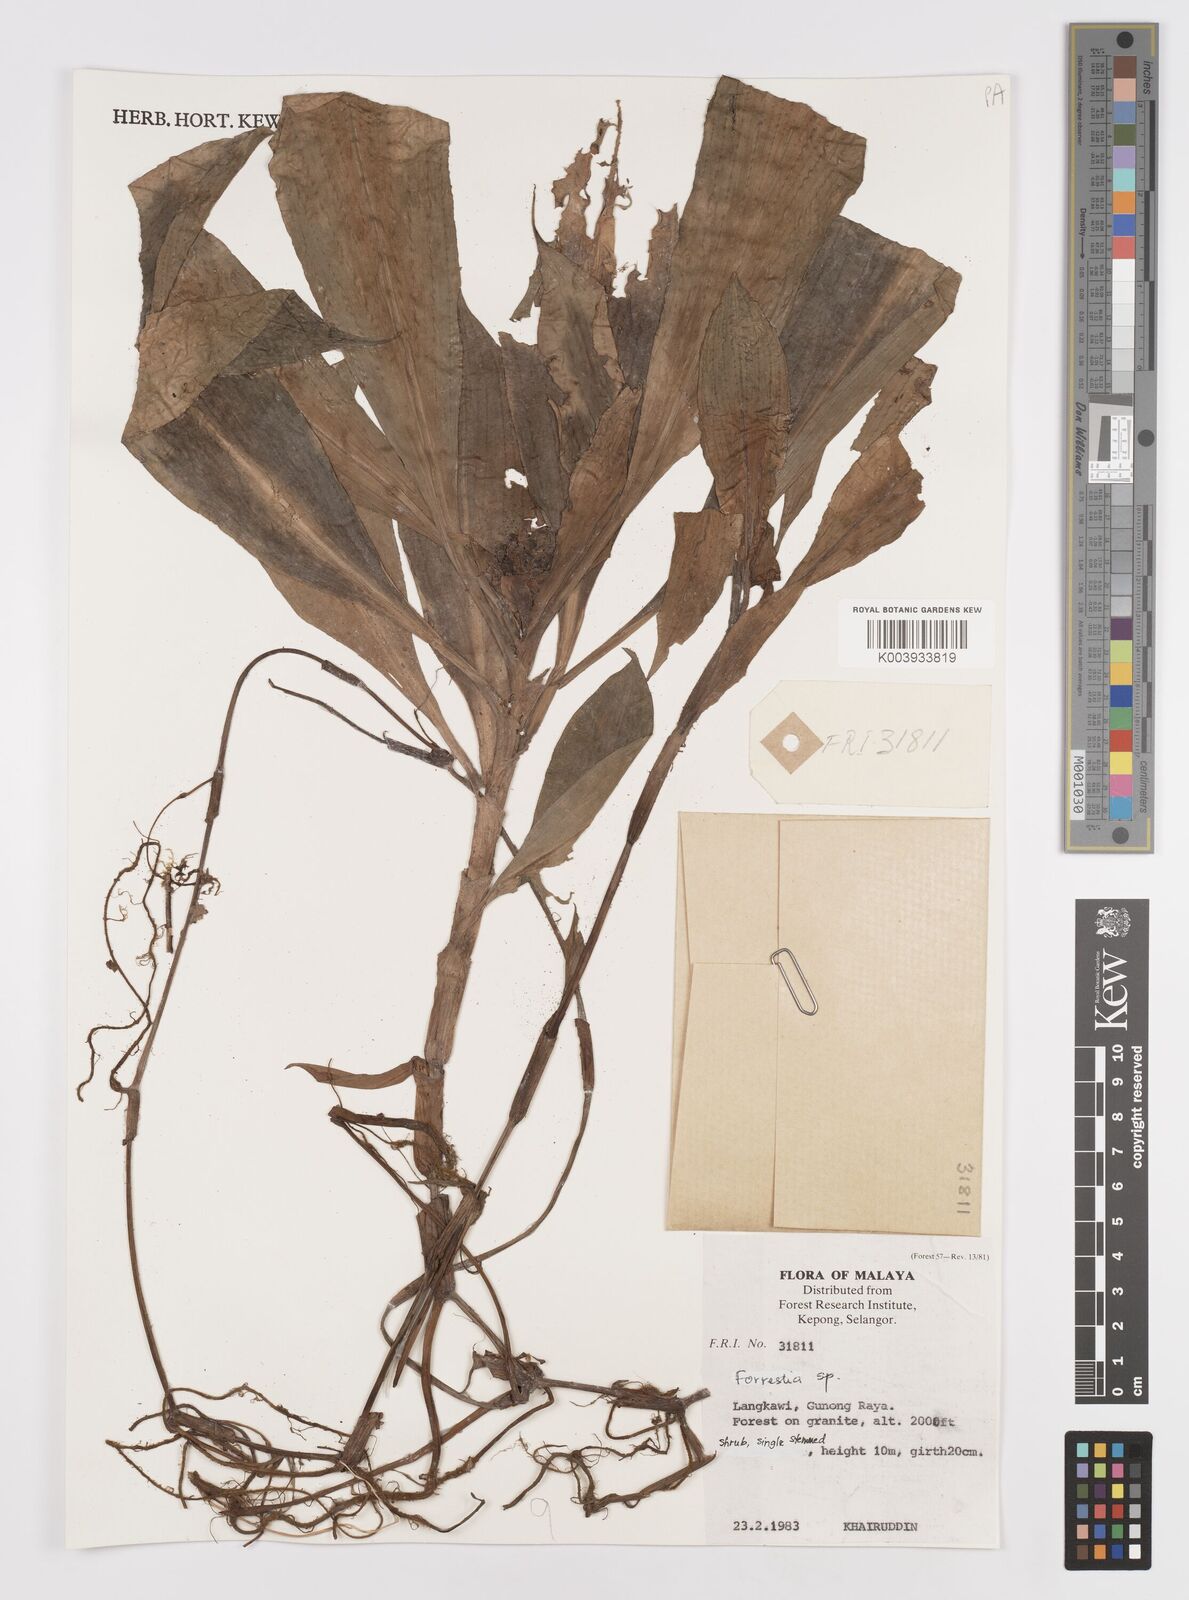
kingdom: Plantae
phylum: Tracheophyta
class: Liliopsida
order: Commelinales
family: Commelinaceae
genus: Amischotolype
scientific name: Amischotolype
